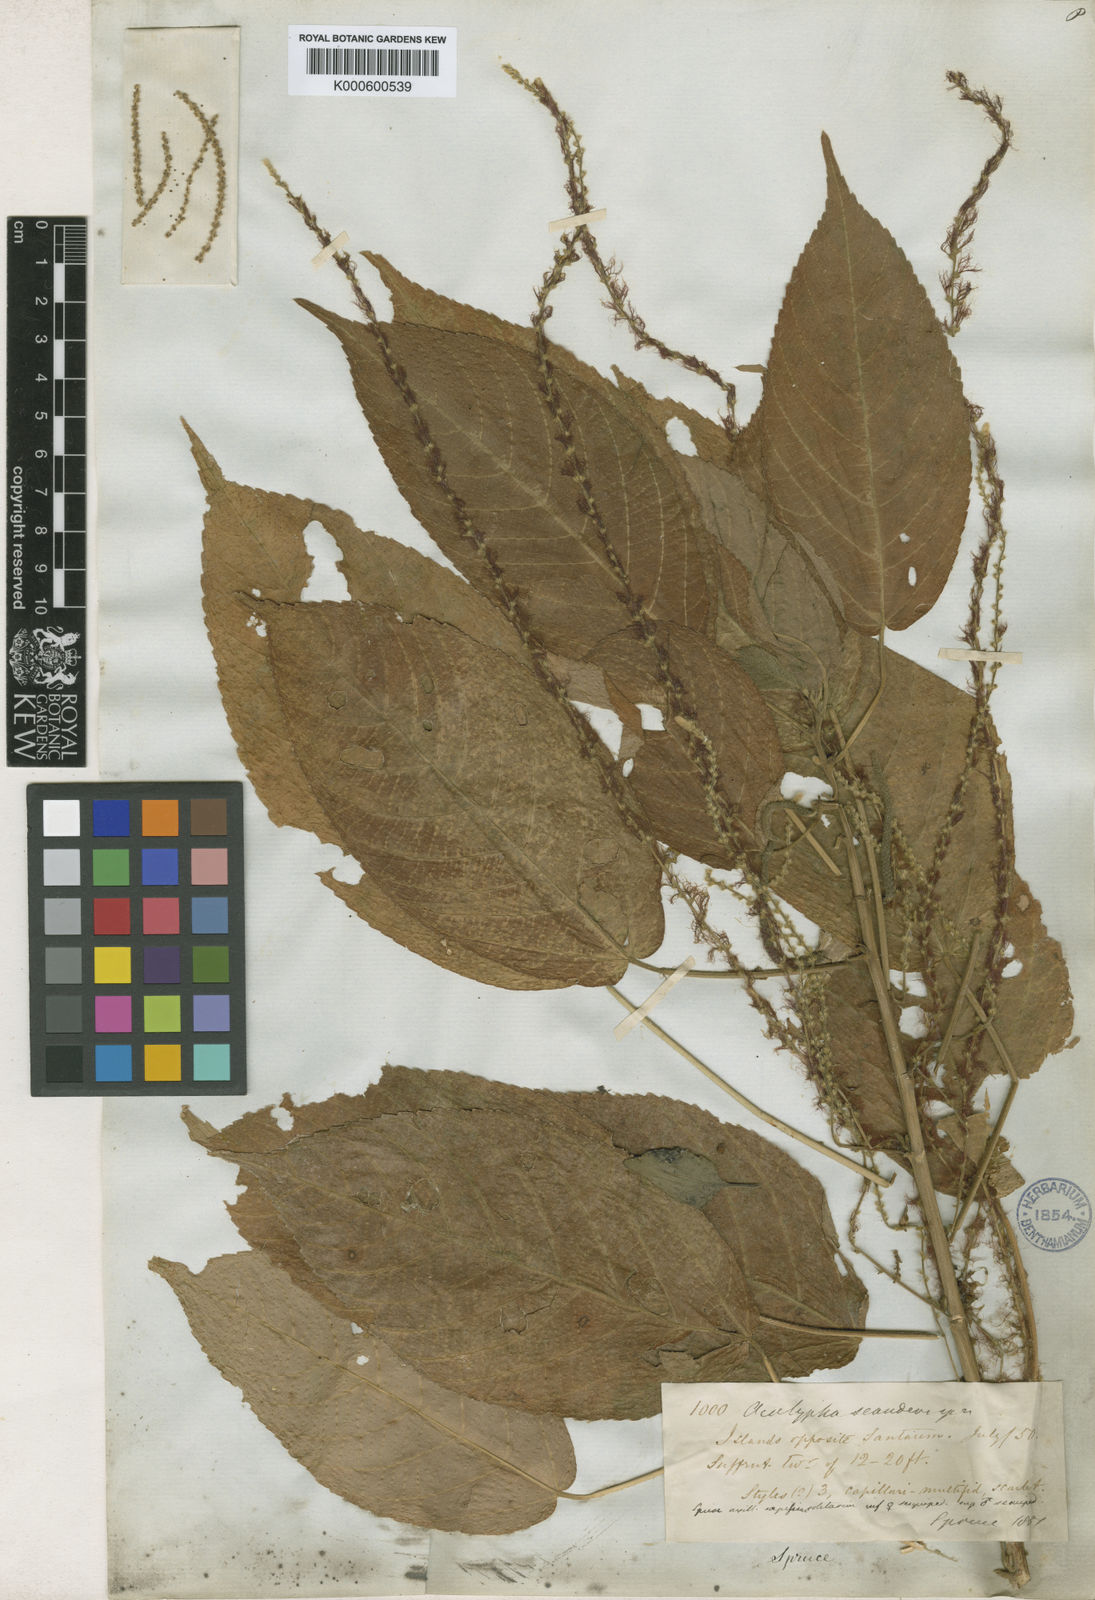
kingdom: Plantae
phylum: Tracheophyta
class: Magnoliopsida
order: Malpighiales
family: Euphorbiaceae
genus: Acalypha
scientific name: Acalypha scandens
